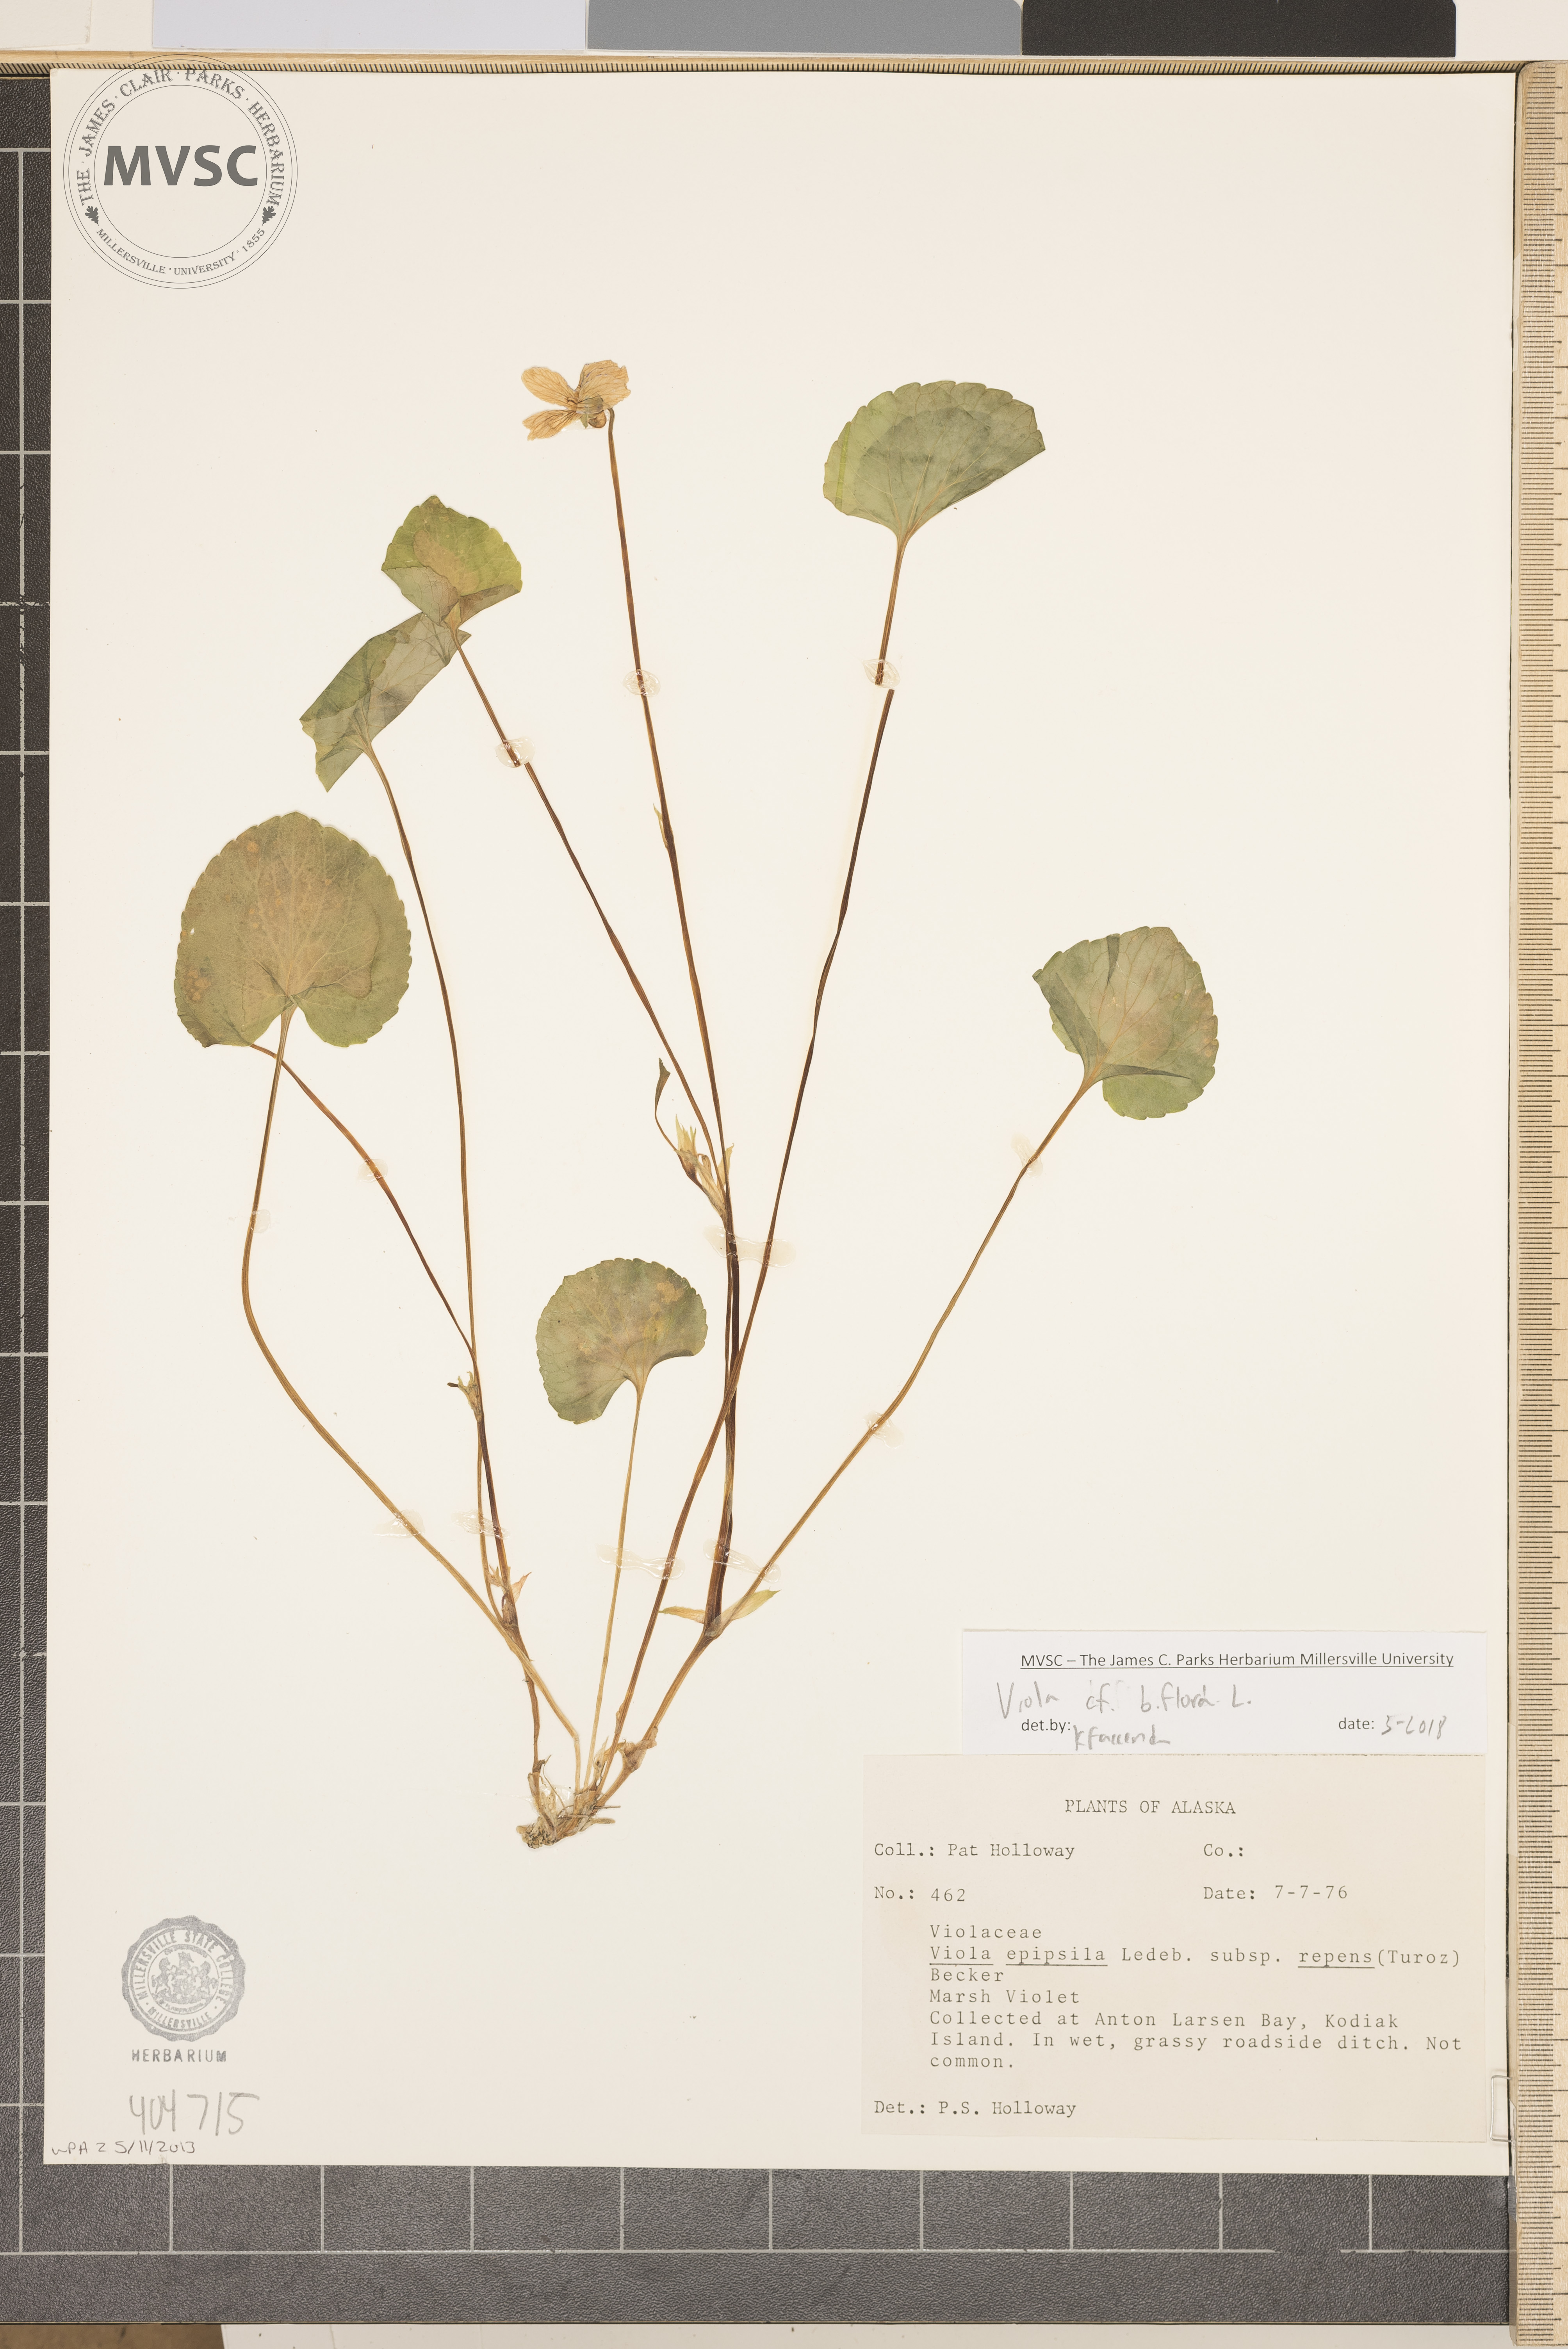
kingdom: Plantae
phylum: Tracheophyta
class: Magnoliopsida
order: Malpighiales
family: Violaceae
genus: Viola
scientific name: Viola biflora
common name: Alpine yellow violet
